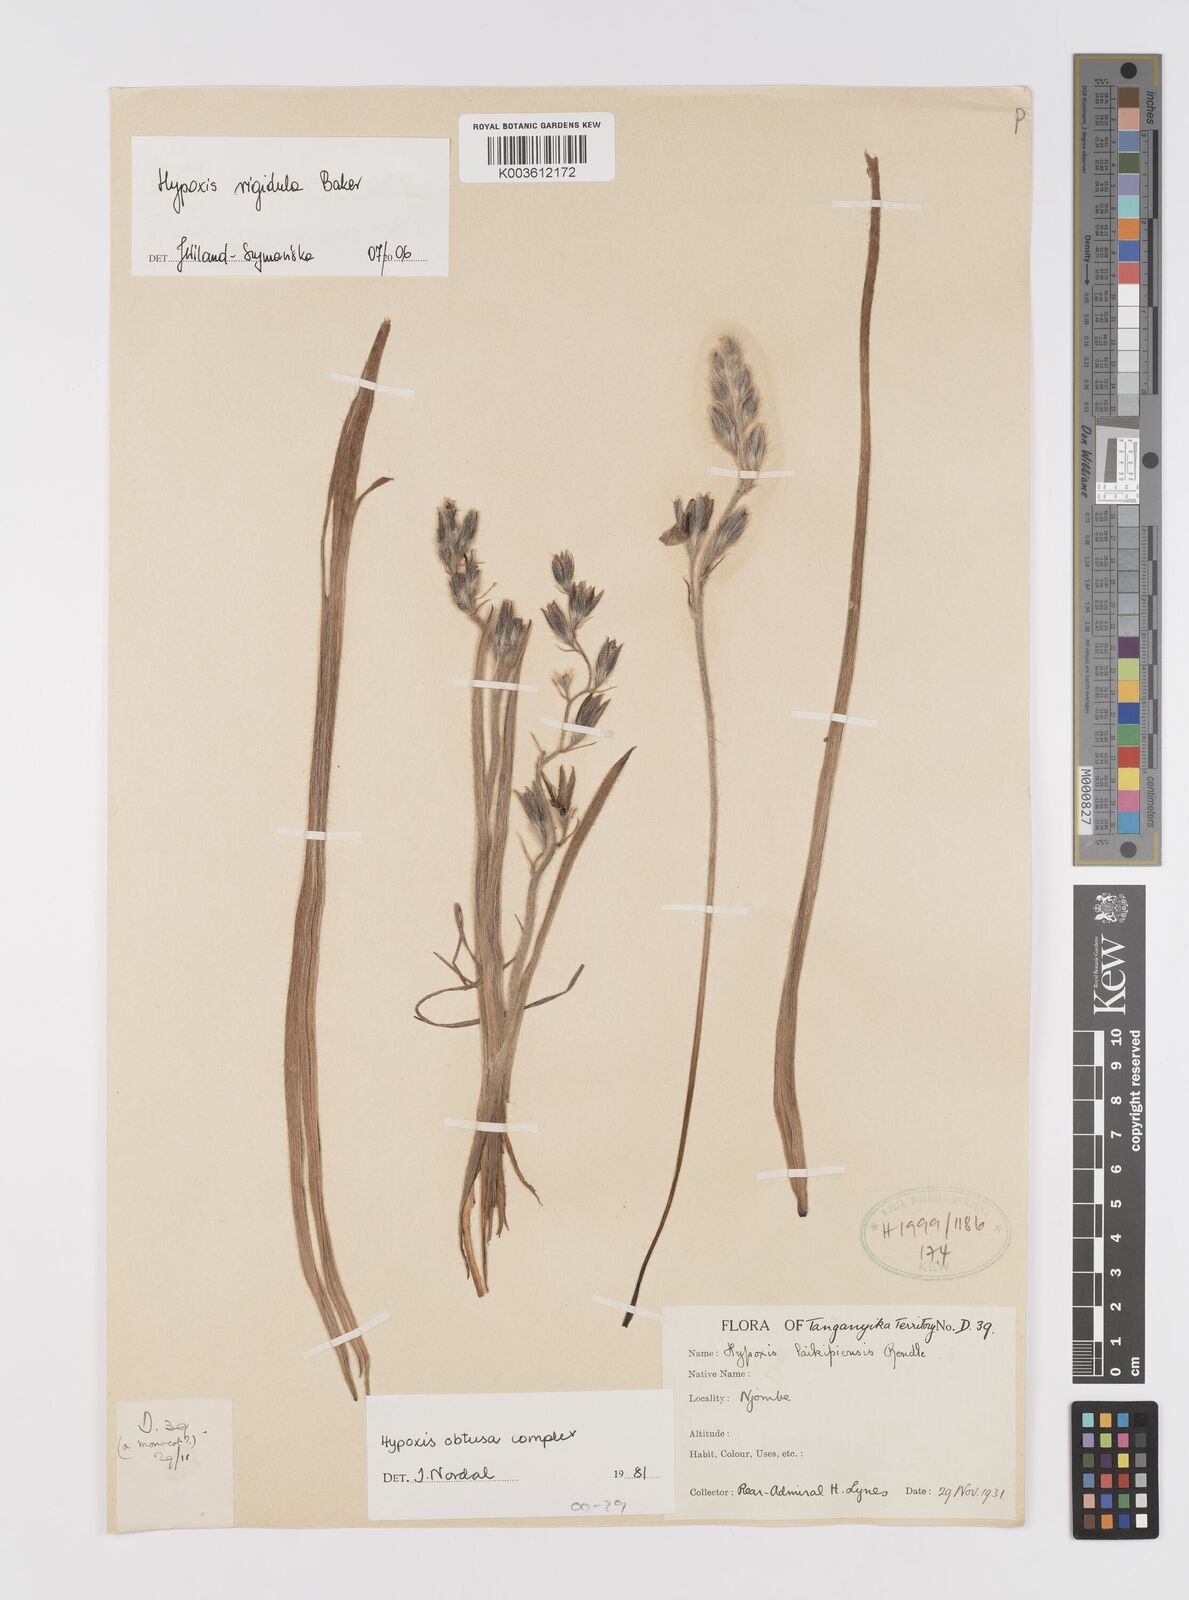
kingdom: Plantae
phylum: Tracheophyta
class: Liliopsida
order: Asparagales
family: Hypoxidaceae
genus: Hypoxis
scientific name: Hypoxis rigidula
